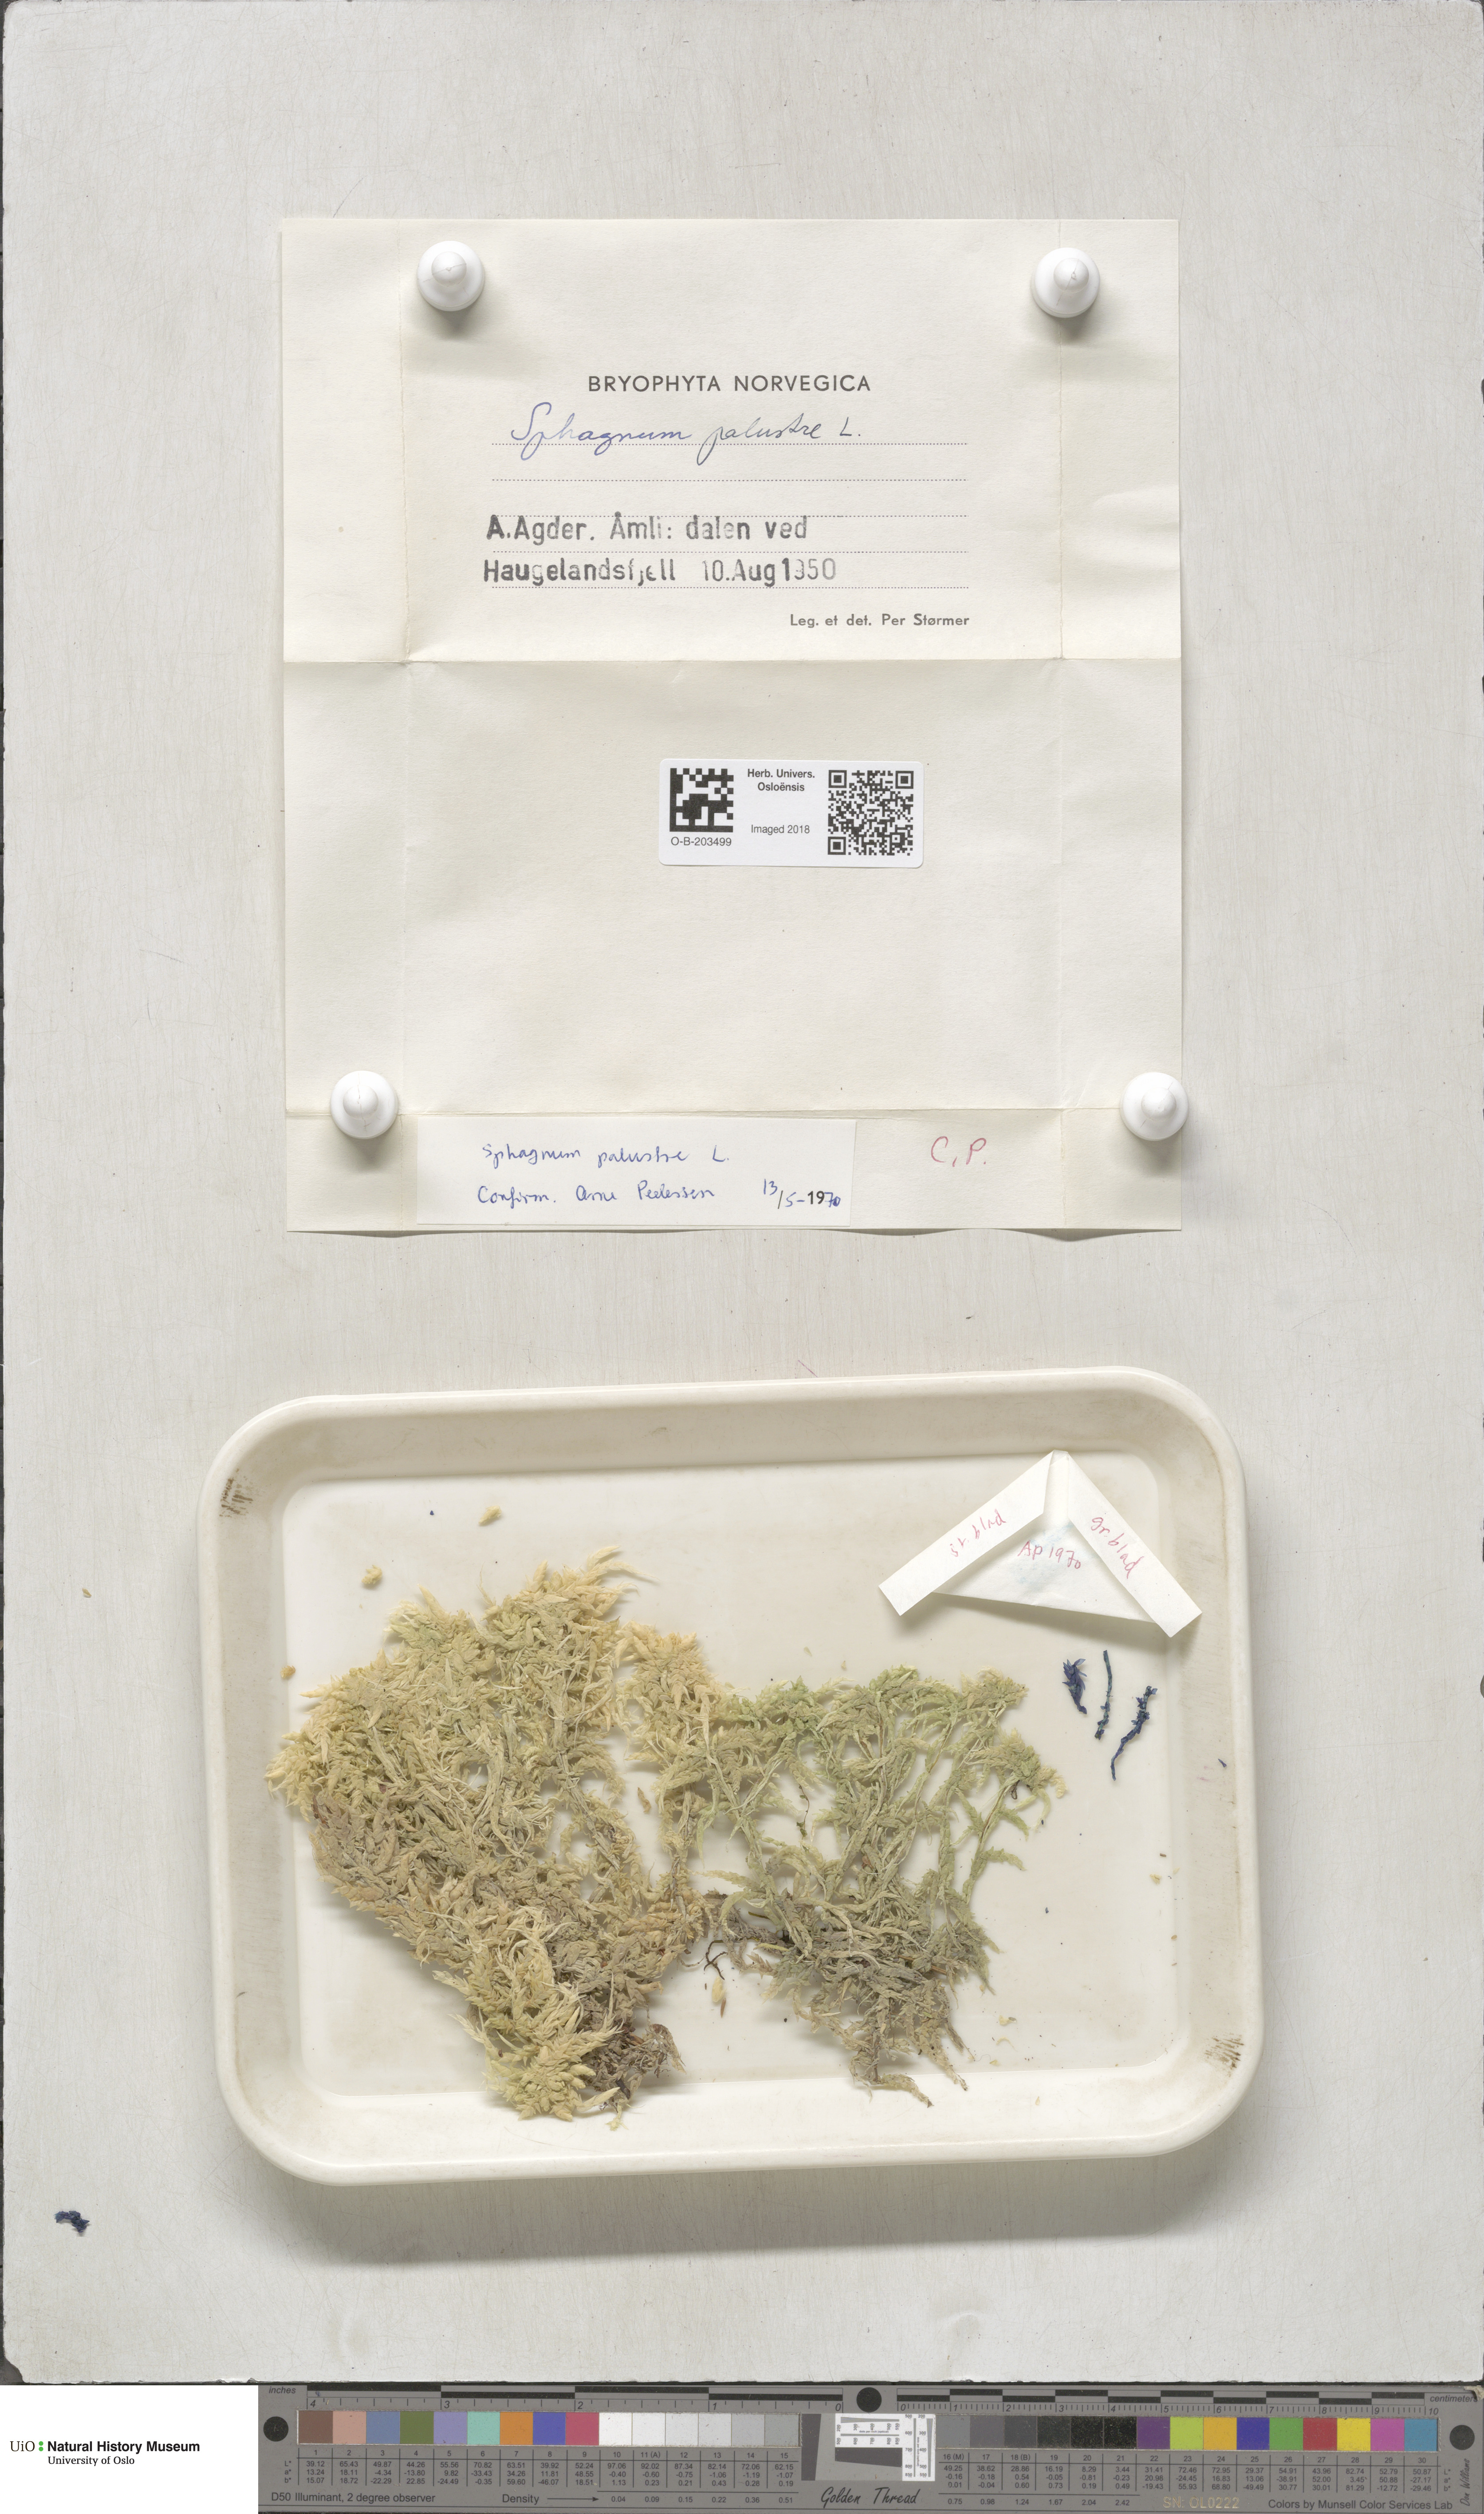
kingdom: Plantae
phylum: Bryophyta
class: Sphagnopsida
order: Sphagnales
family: Sphagnaceae
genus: Sphagnum
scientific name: Sphagnum palustre
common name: Blunt-leaved bog-moss
